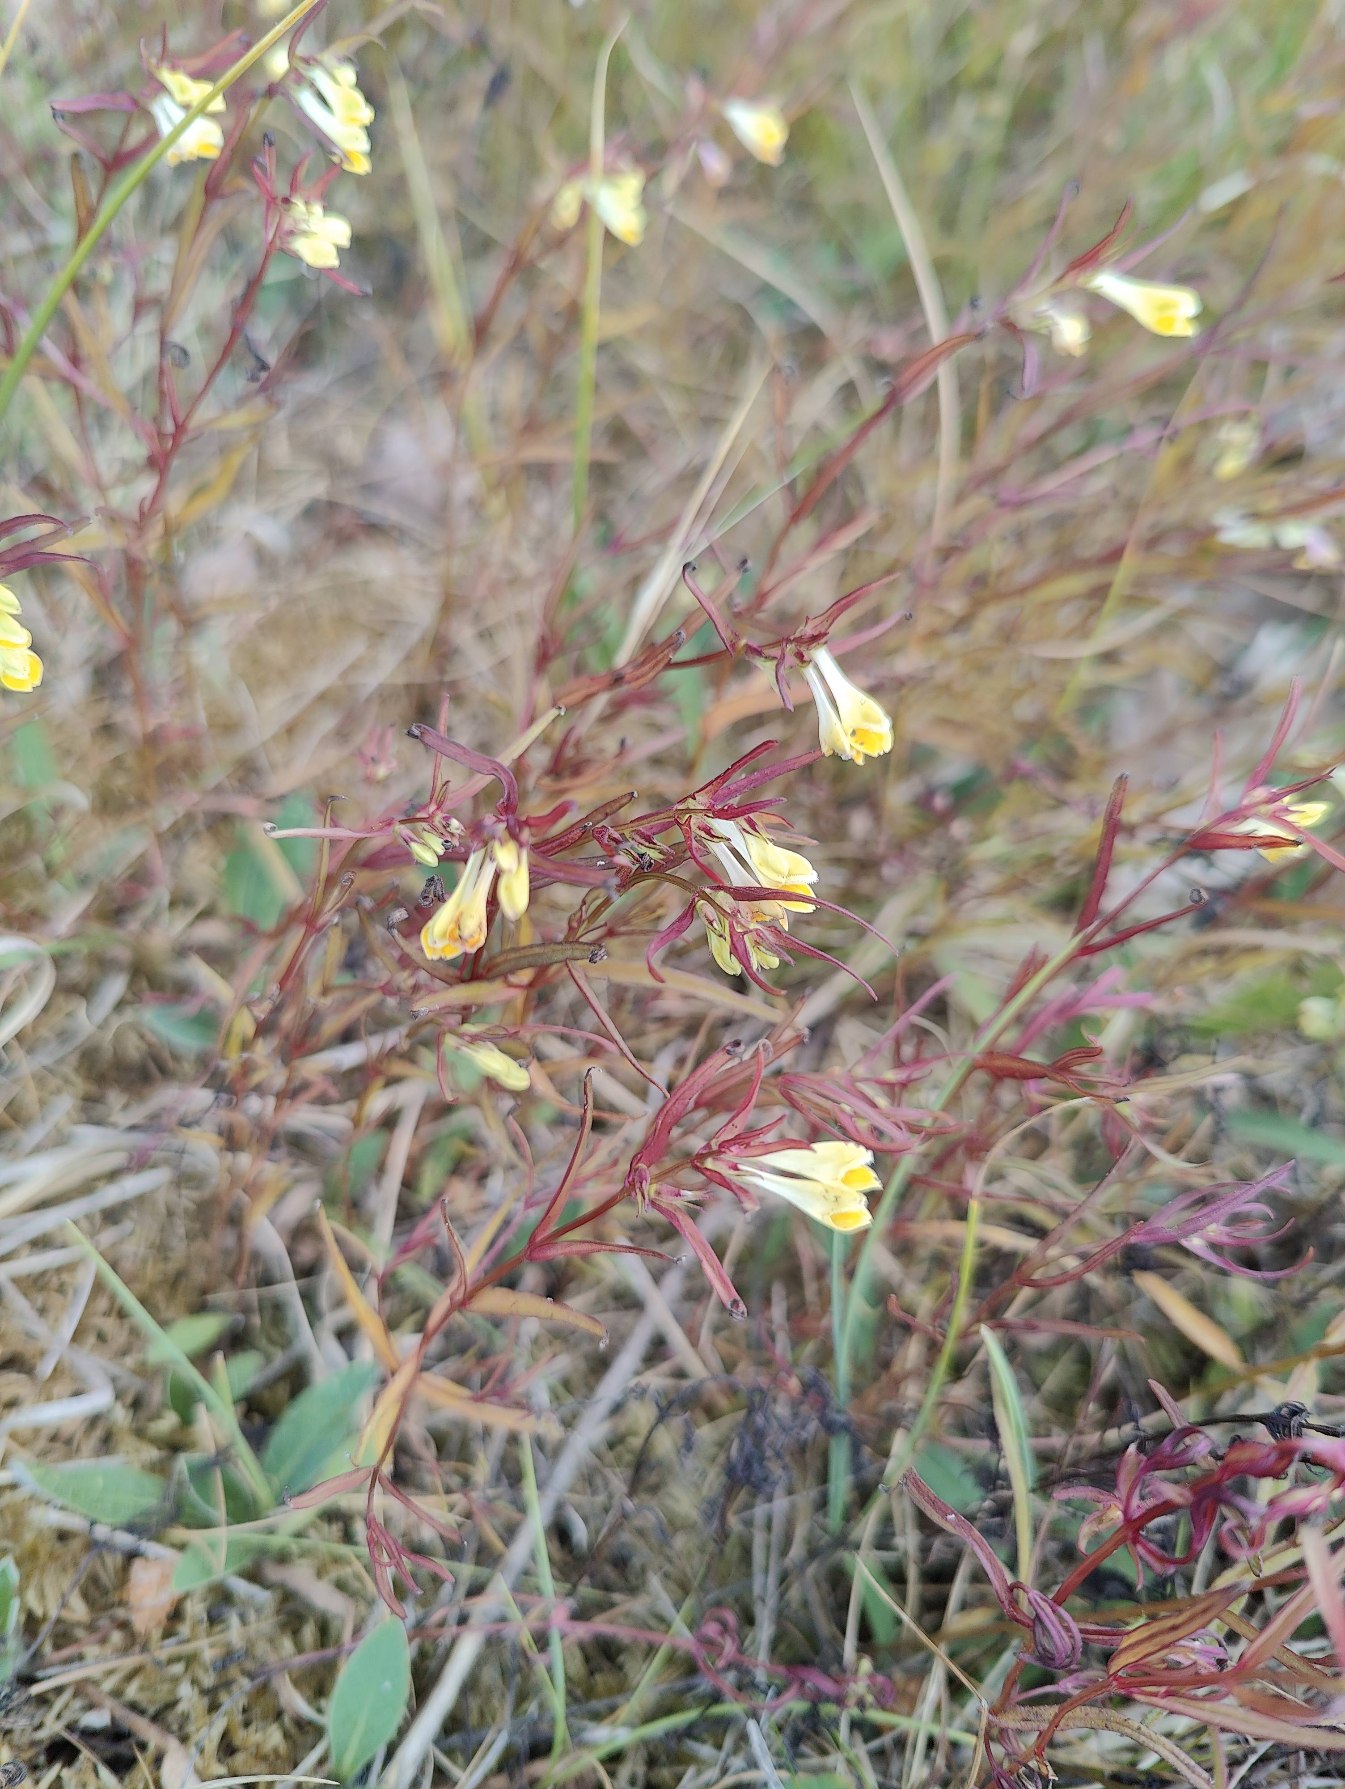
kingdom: Plantae
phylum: Tracheophyta
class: Magnoliopsida
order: Lamiales
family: Orobanchaceae
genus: Melampyrum
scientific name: Melampyrum pratense
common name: Almindelig kohvede
